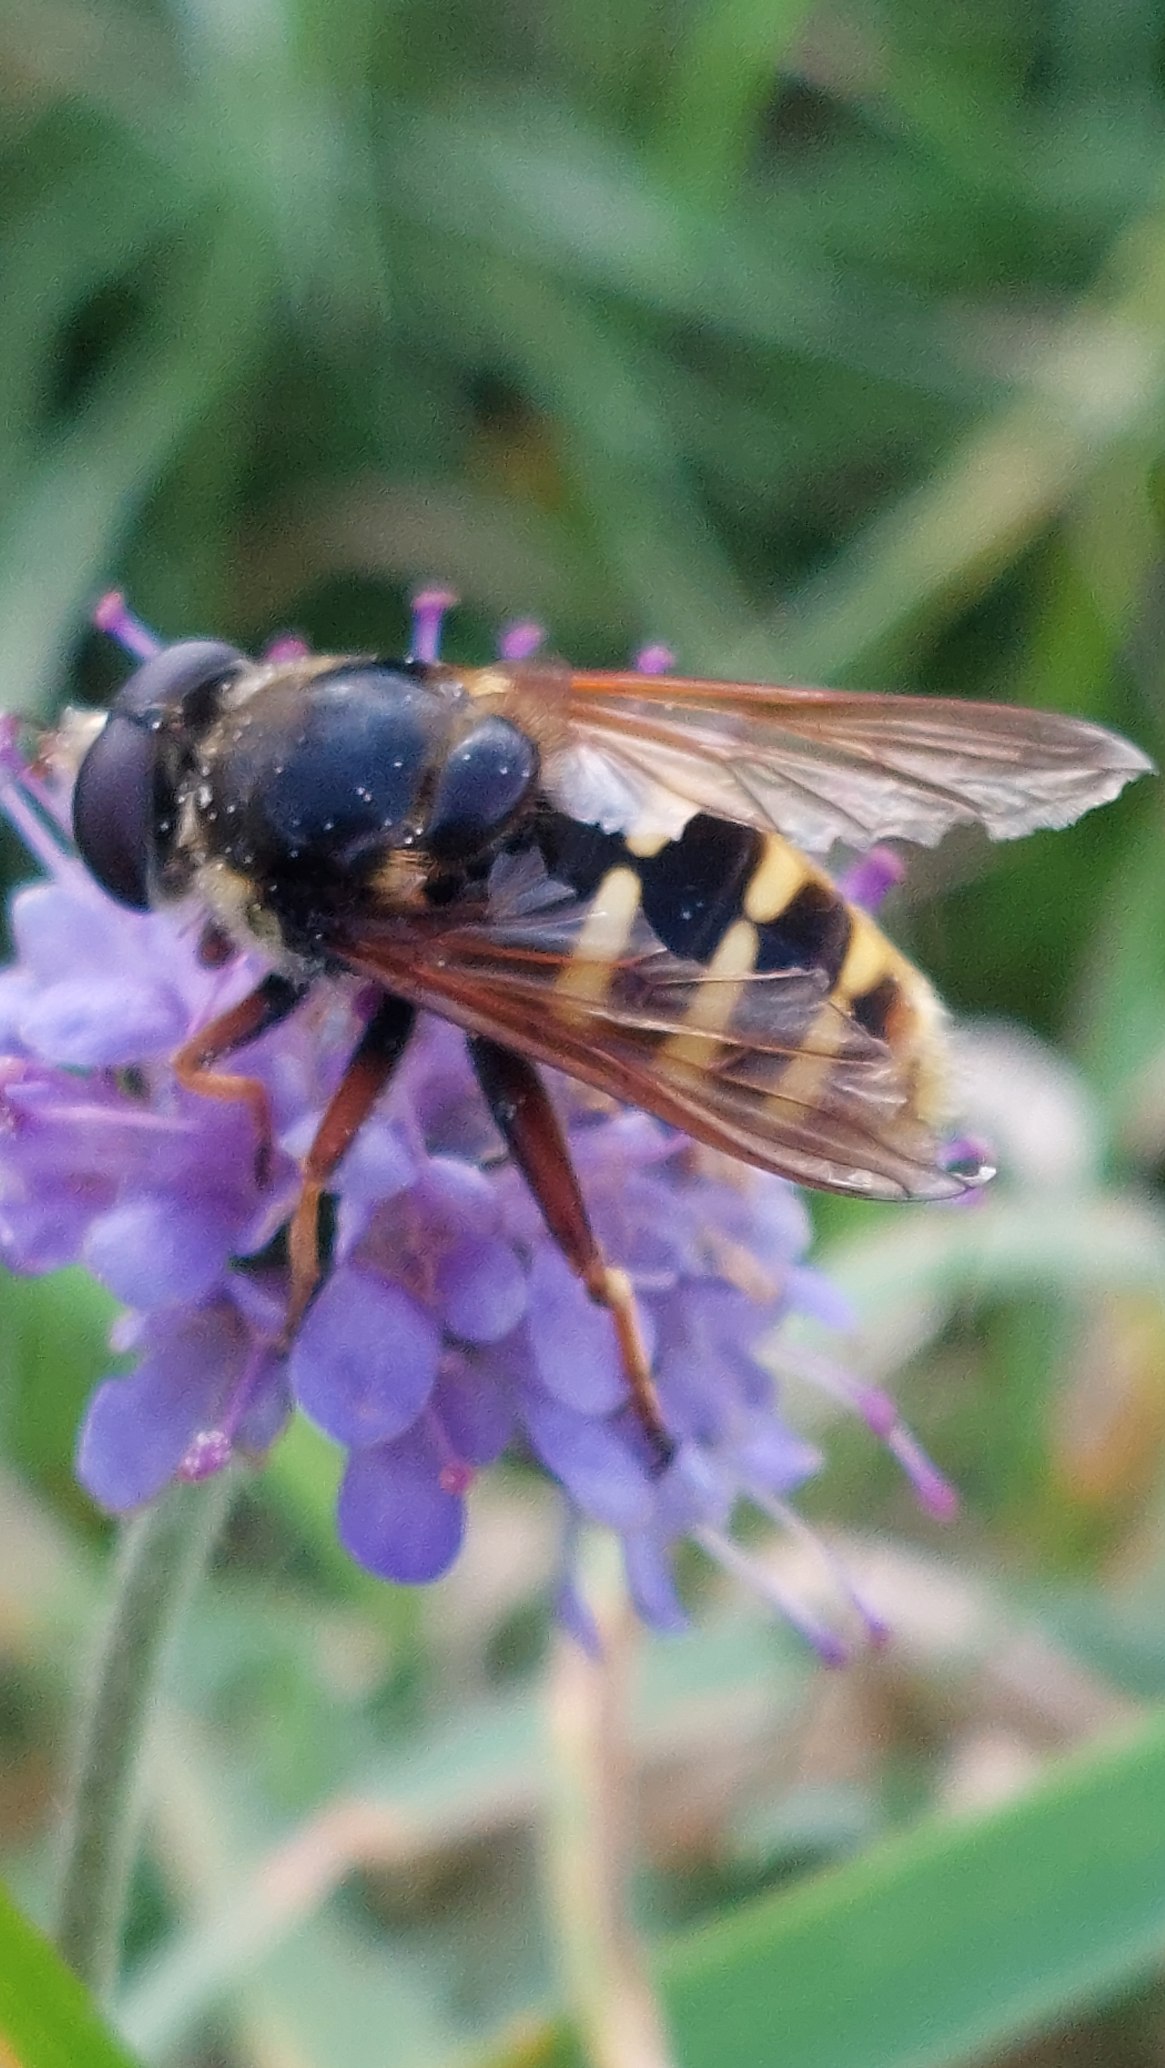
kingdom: Animalia
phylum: Arthropoda
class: Insecta
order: Diptera
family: Syrphidae
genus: Sericomyia
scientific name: Sericomyia silentis
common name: Tørve-silkesvirreflue
